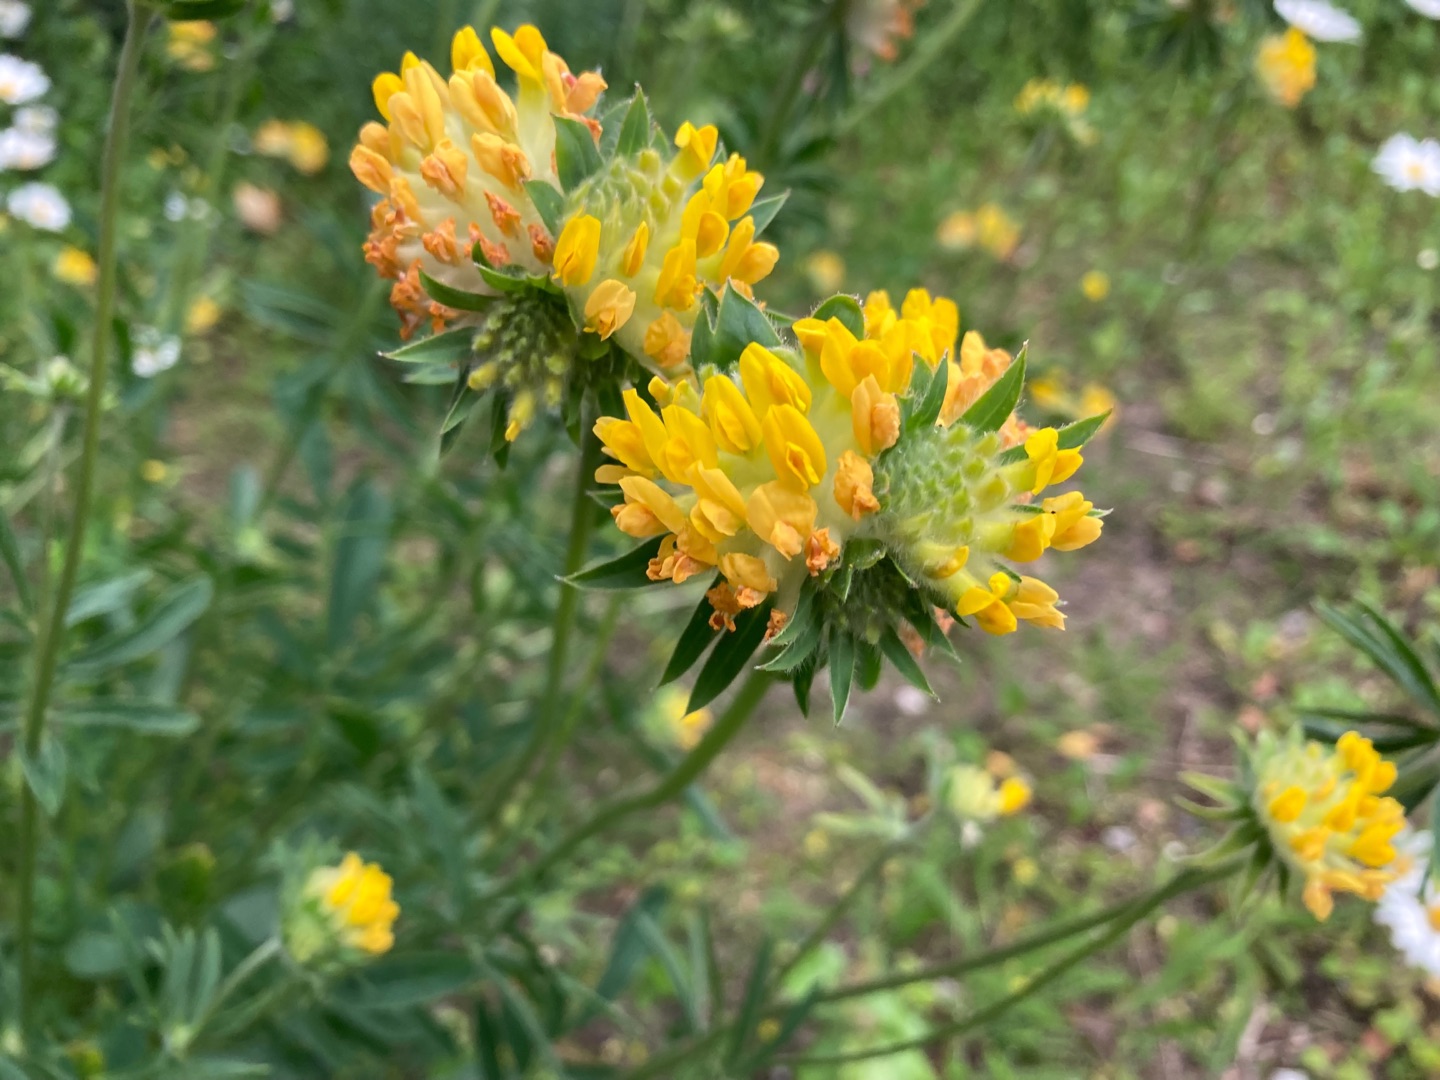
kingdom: Plantae
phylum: Tracheophyta
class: Magnoliopsida
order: Fabales
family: Fabaceae
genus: Anthyllis
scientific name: Anthyllis vulneraria
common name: Rundbælg
